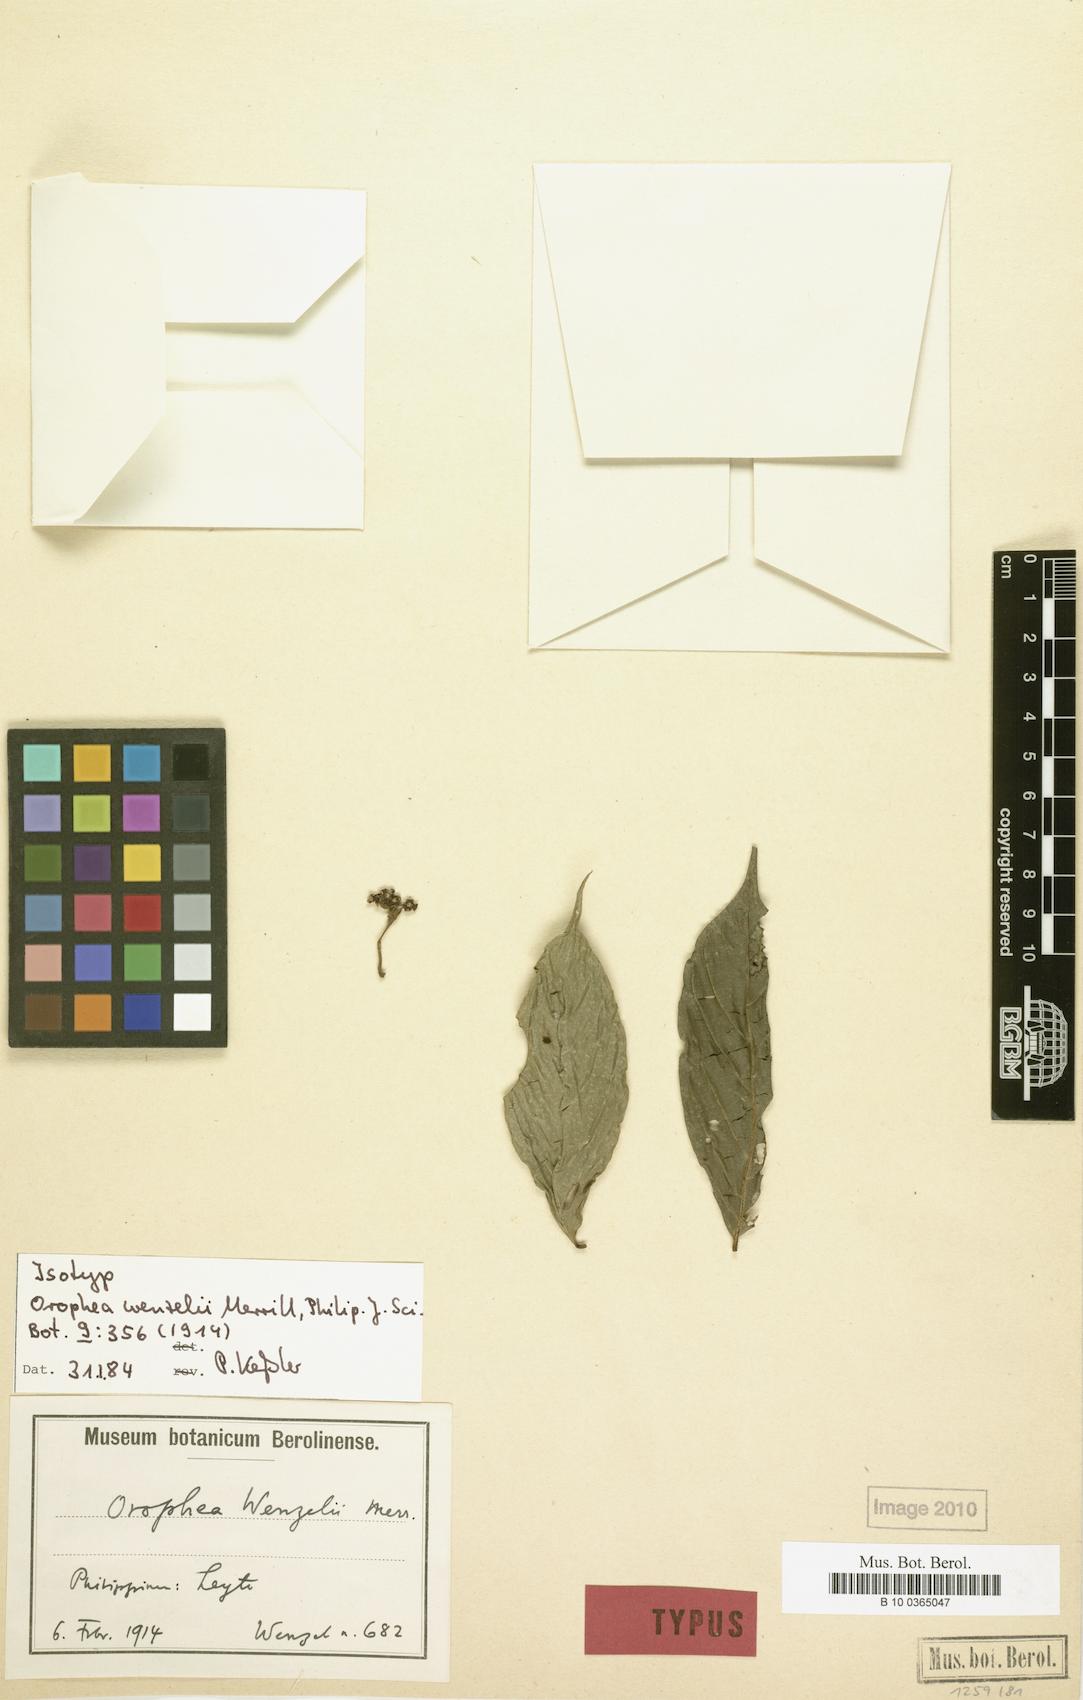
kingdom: Plantae
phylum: Tracheophyta
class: Magnoliopsida
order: Magnoliales
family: Annonaceae
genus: Orophea
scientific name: Orophea wenzelii
